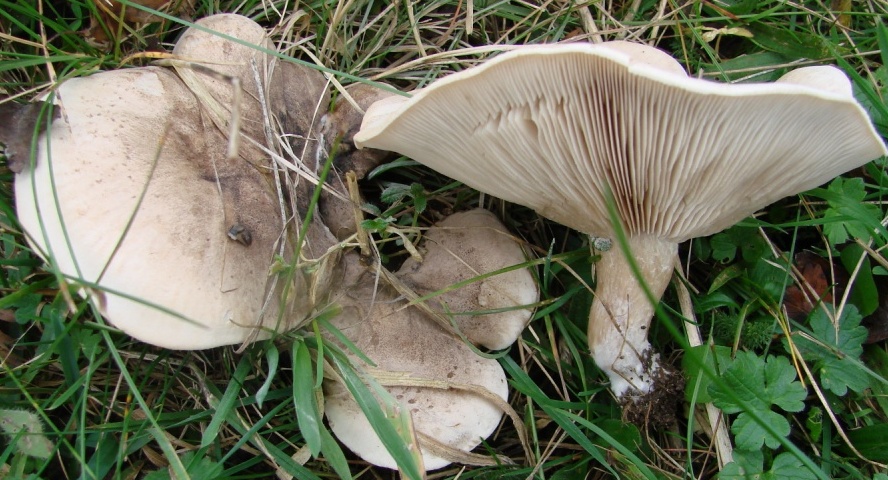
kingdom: Fungi
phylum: Basidiomycota
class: Agaricomycetes
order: Agaricales
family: Tricholomataceae
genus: Lepista
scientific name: Lepista panaeolus
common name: marmoreret hekseringshat
